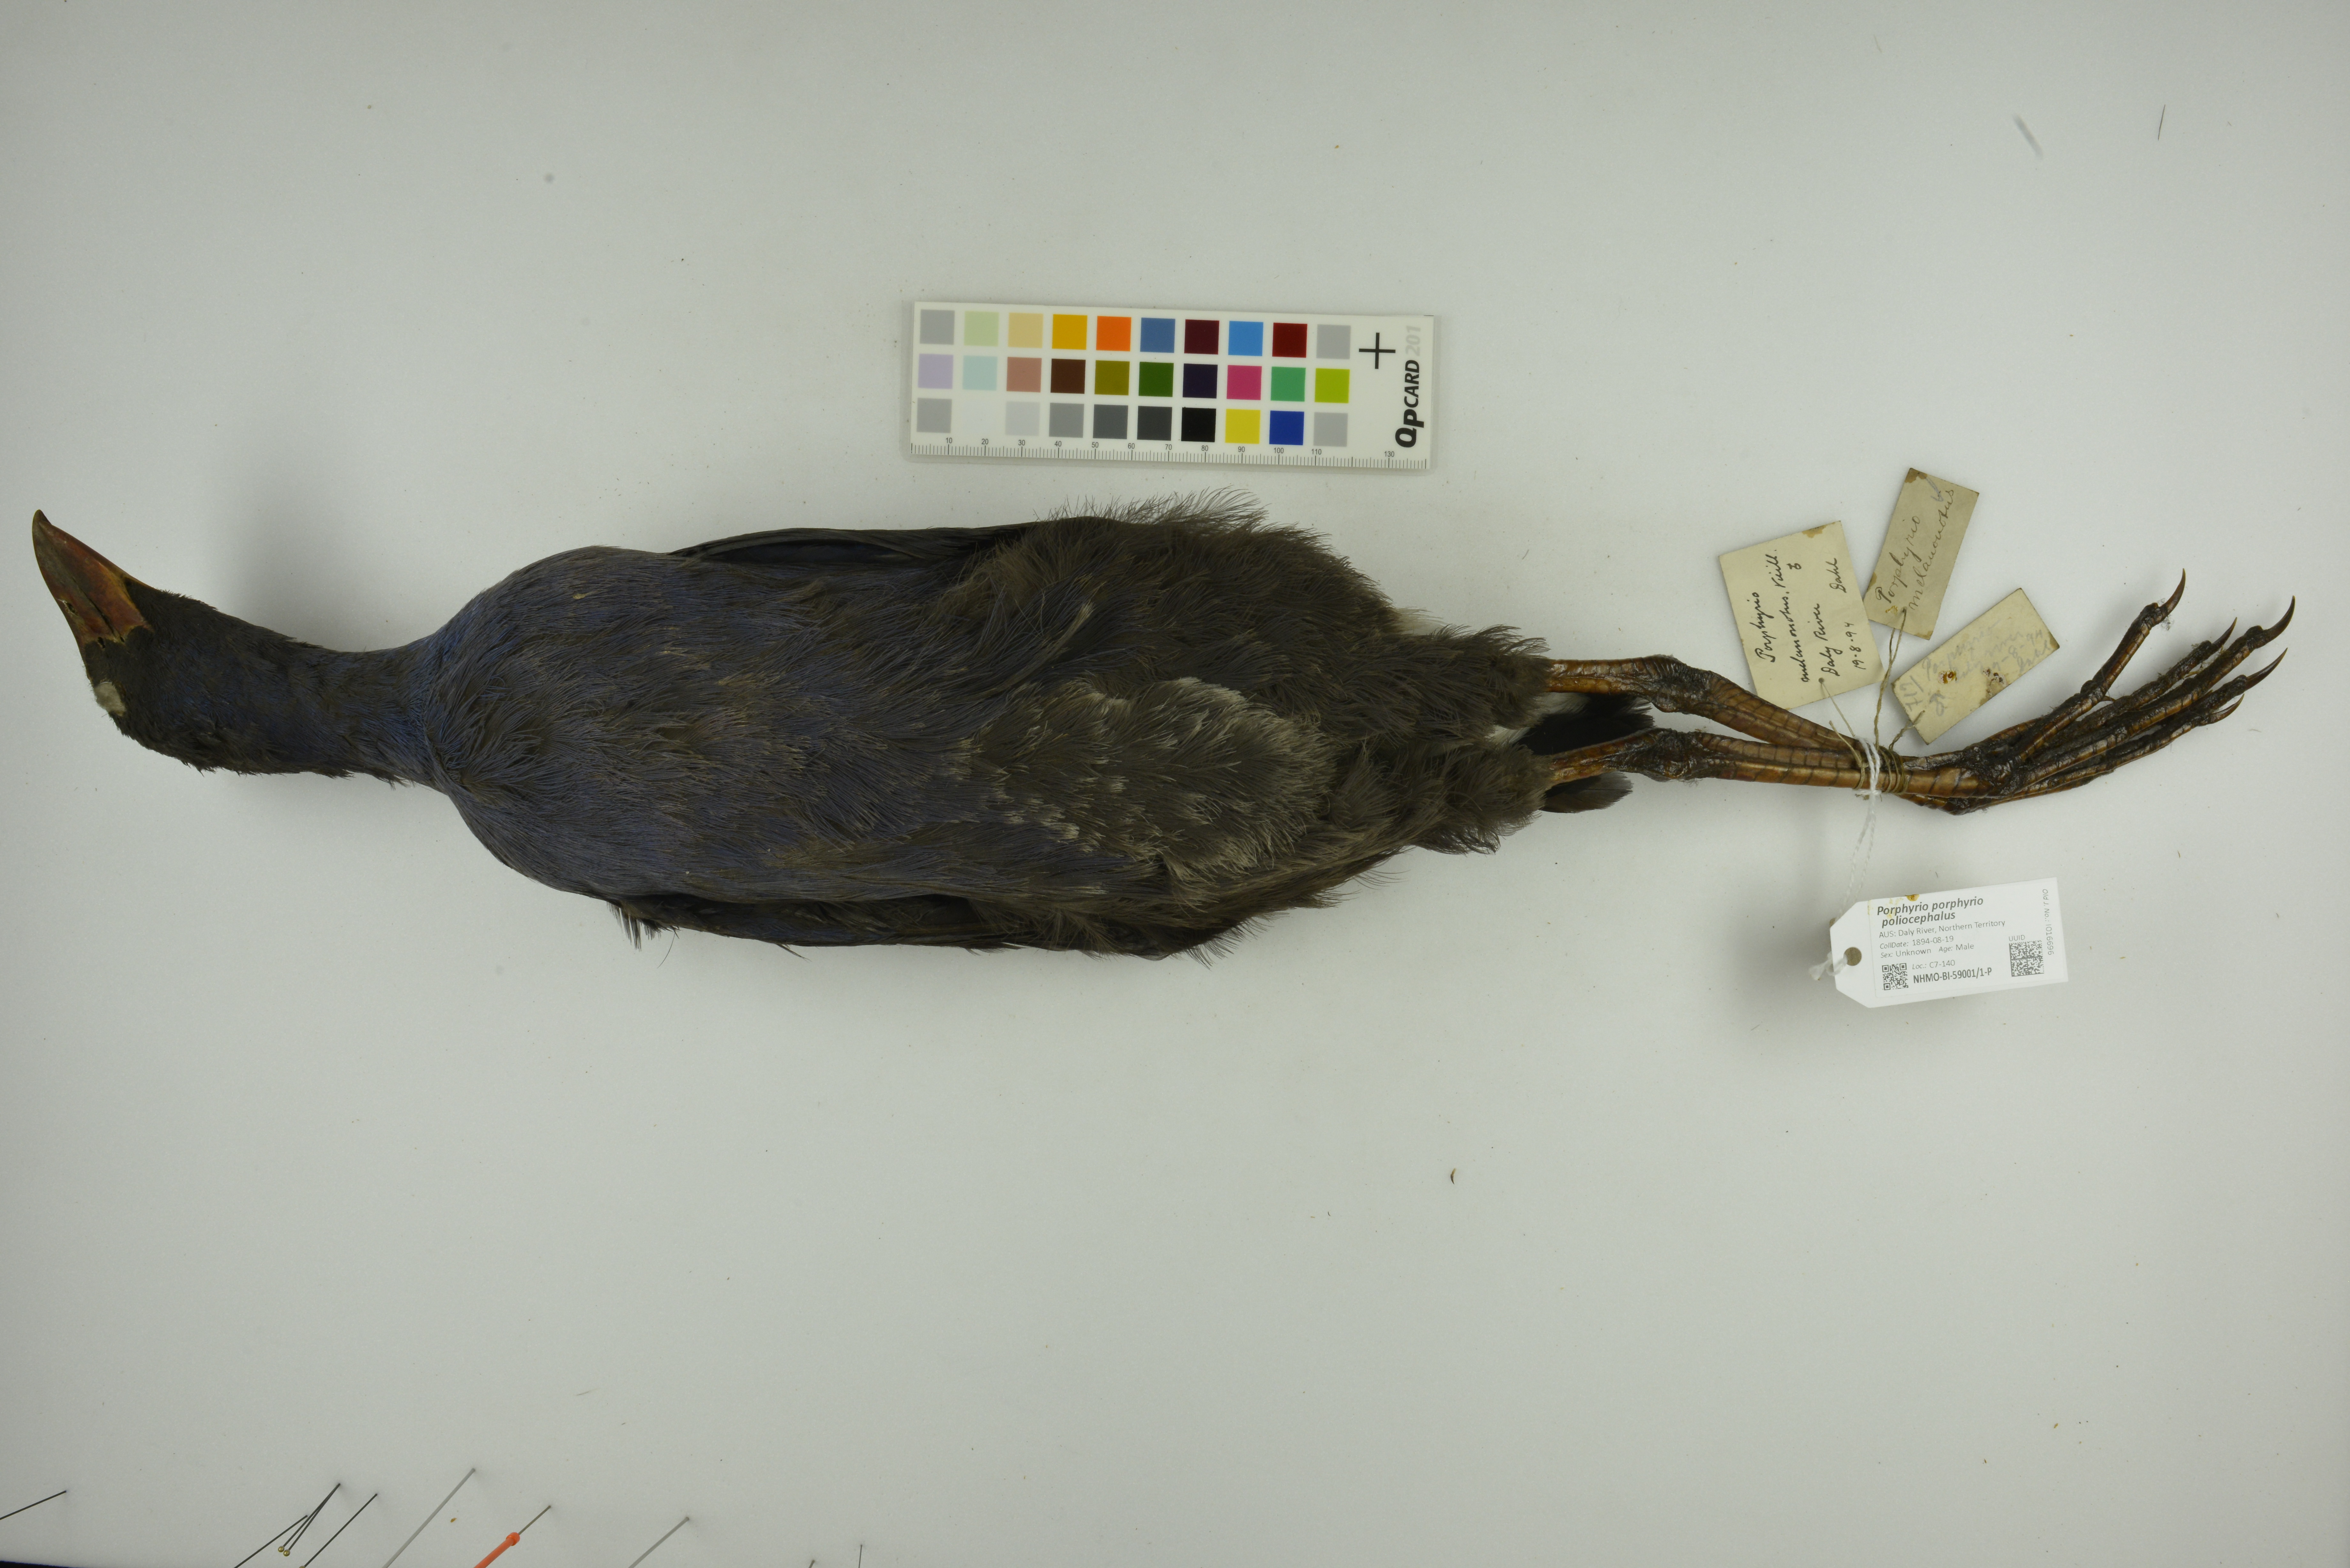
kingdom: Animalia
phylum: Chordata
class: Aves
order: Gruiformes
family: Rallidae
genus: Porphyrio
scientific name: Porphyrio porphyrio
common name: Purple swamphen
